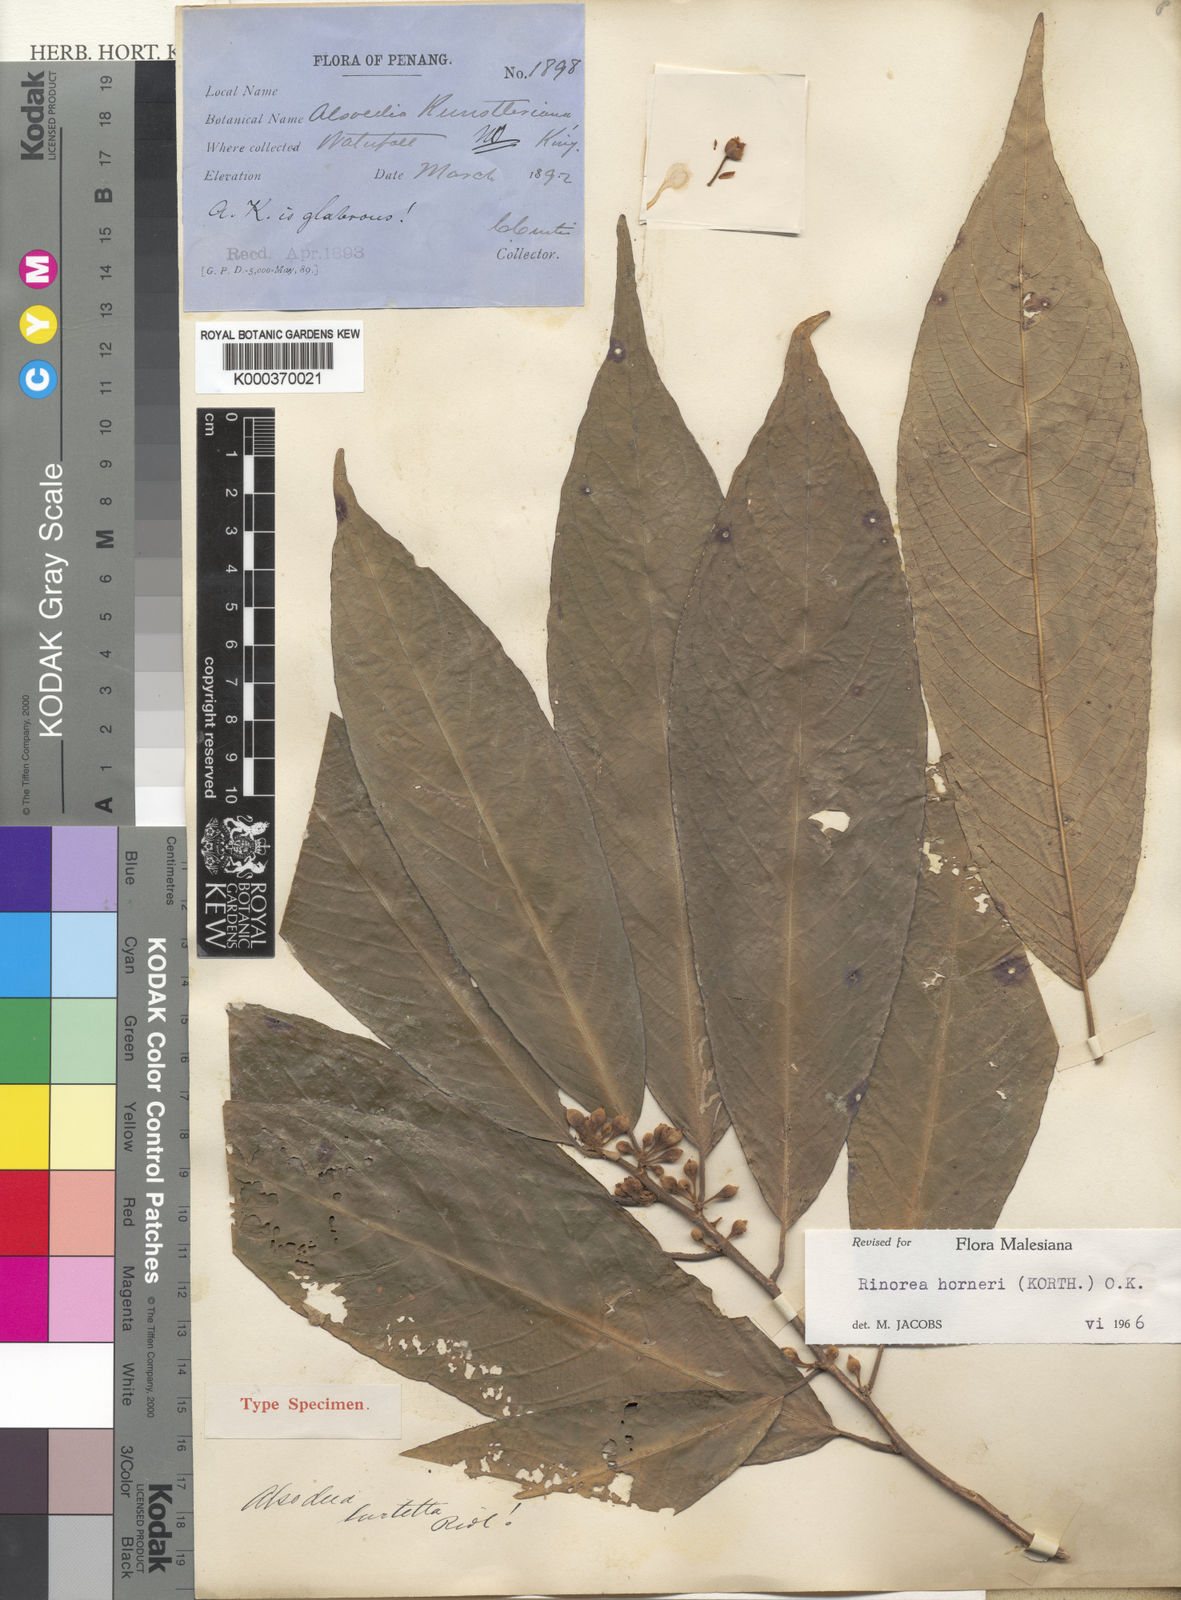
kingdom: Plantae
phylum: Tracheophyta
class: Magnoliopsida
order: Malpighiales
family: Violaceae
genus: Rinorea
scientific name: Rinorea horneri
